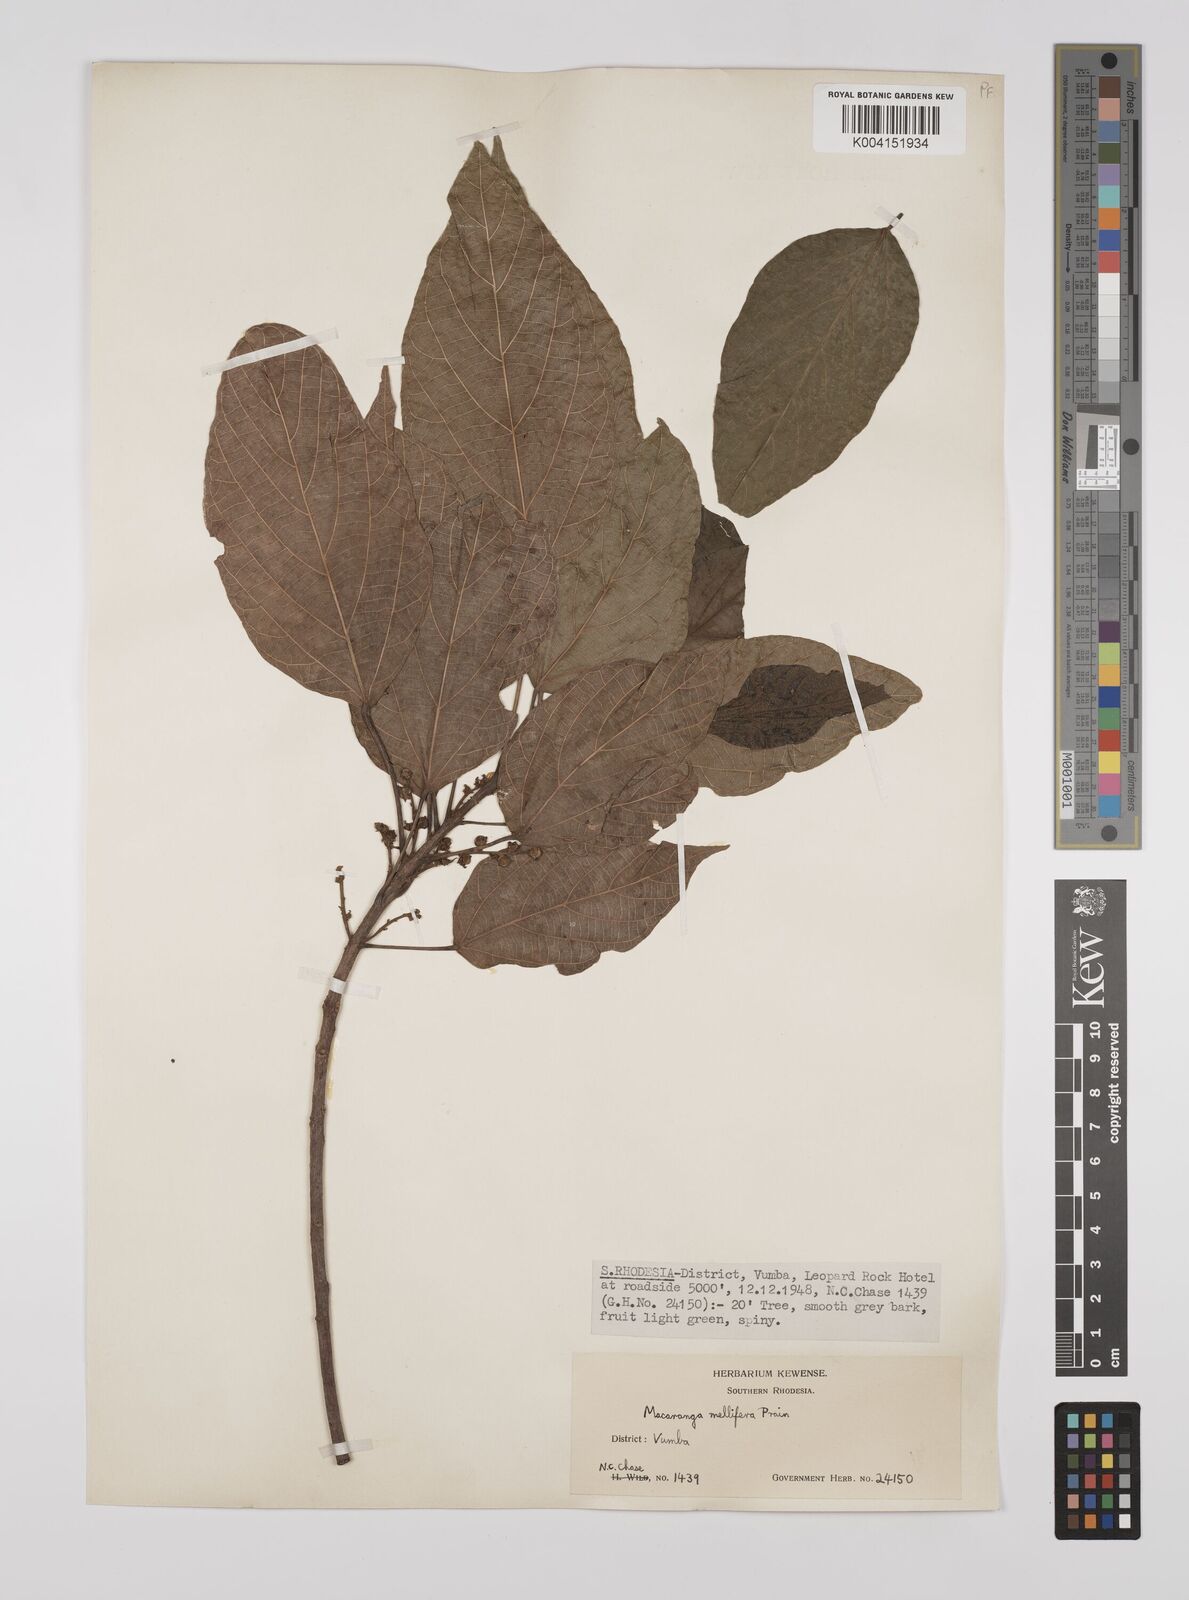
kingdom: Plantae
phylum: Tracheophyta
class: Magnoliopsida
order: Malpighiales
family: Euphorbiaceae
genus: Macaranga
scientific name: Macaranga mellifera
